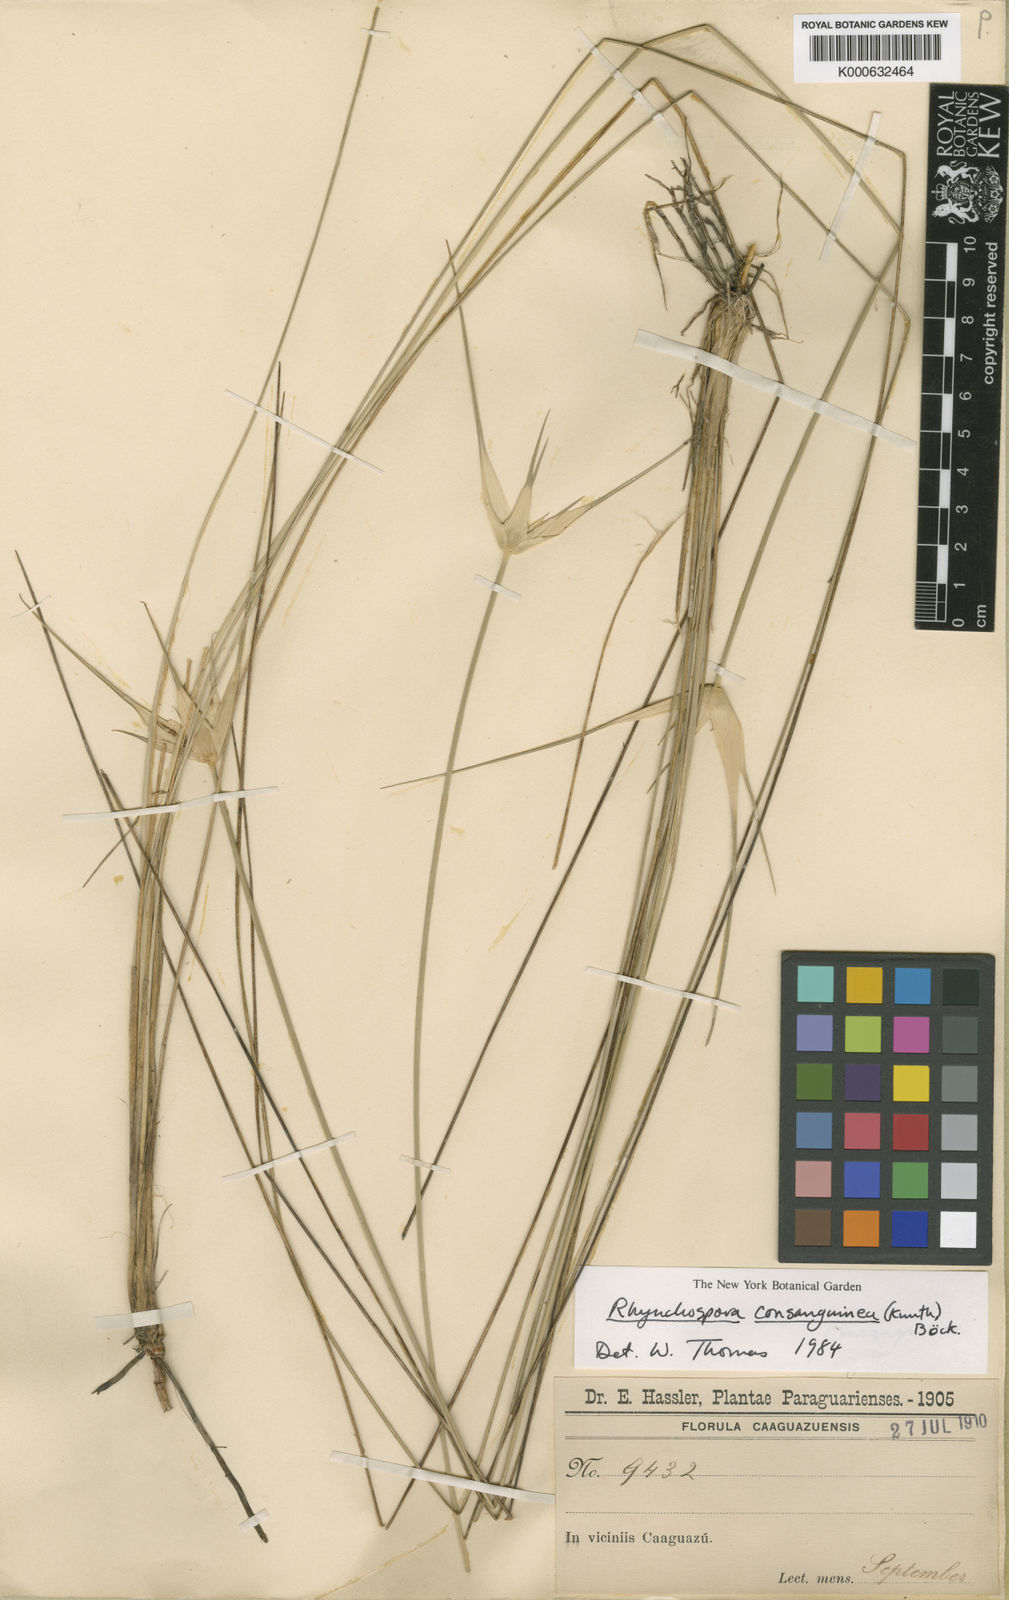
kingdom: Plantae
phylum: Tracheophyta
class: Liliopsida
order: Poales
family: Cyperaceae
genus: Rhynchospora
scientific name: Rhynchospora speciosa
